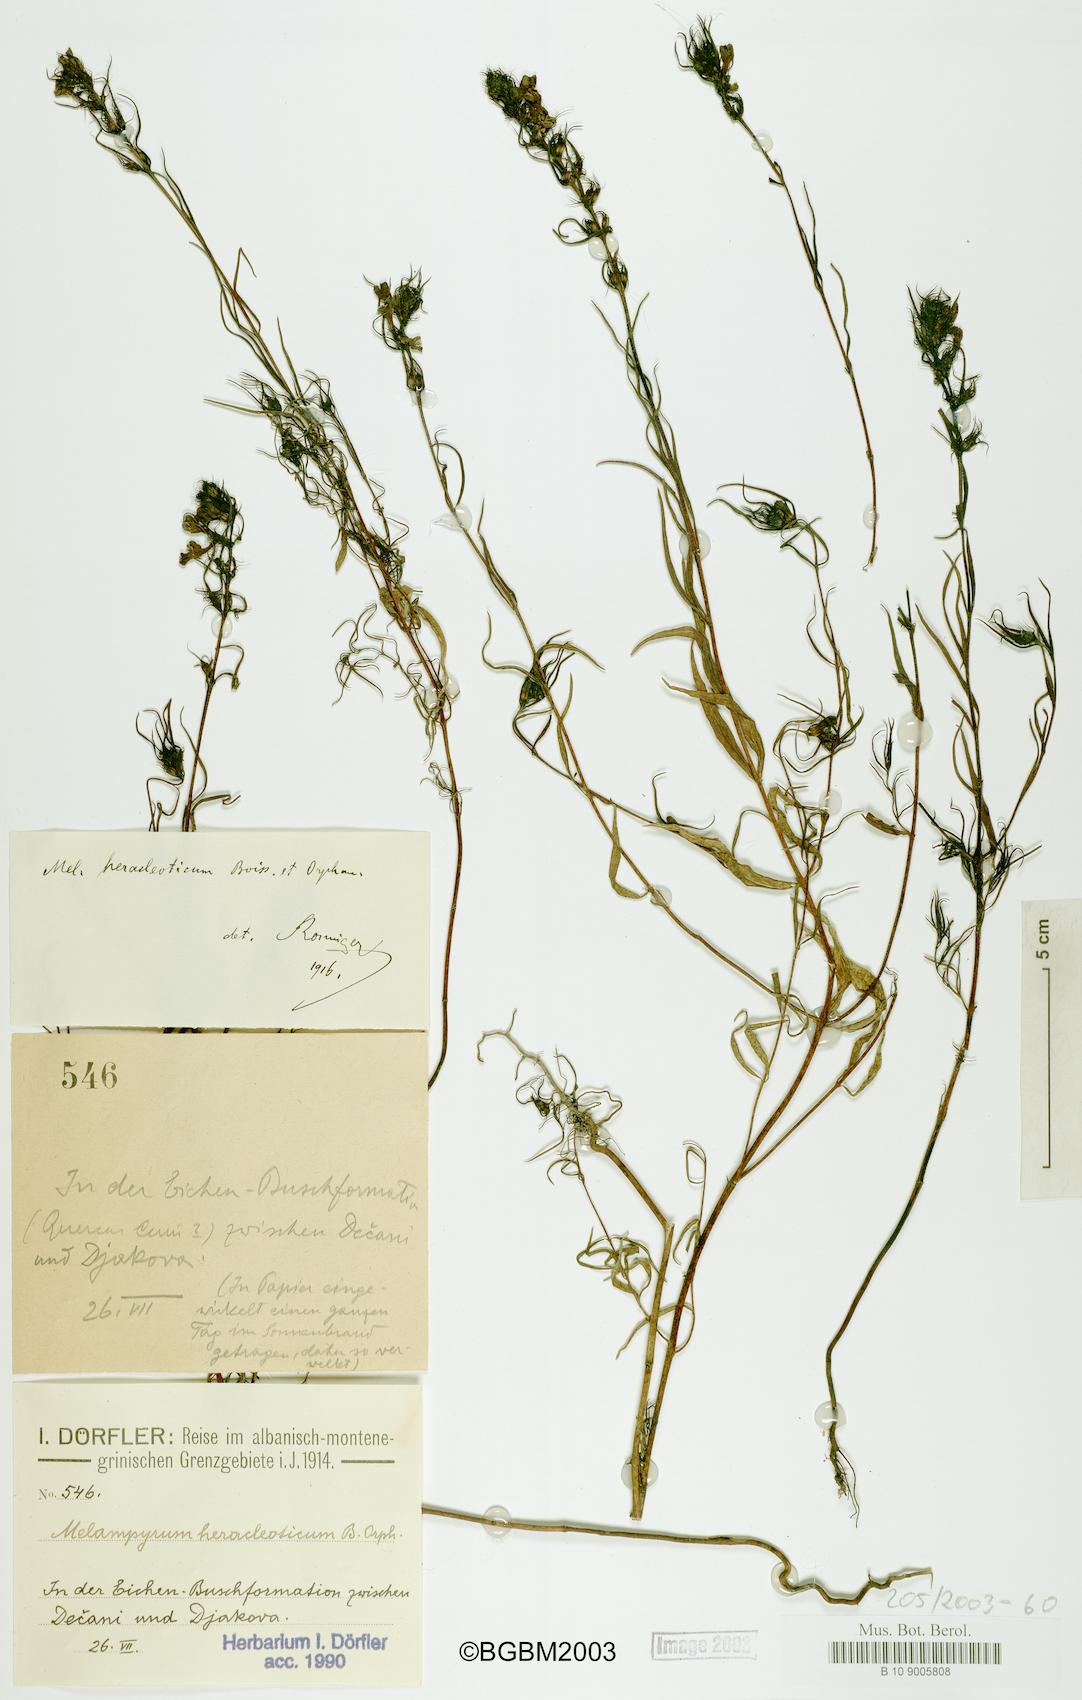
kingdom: Plantae
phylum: Tracheophyta
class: Magnoliopsida
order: Lamiales
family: Orobanchaceae
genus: Melampyrum
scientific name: Melampyrum heracleoticum
